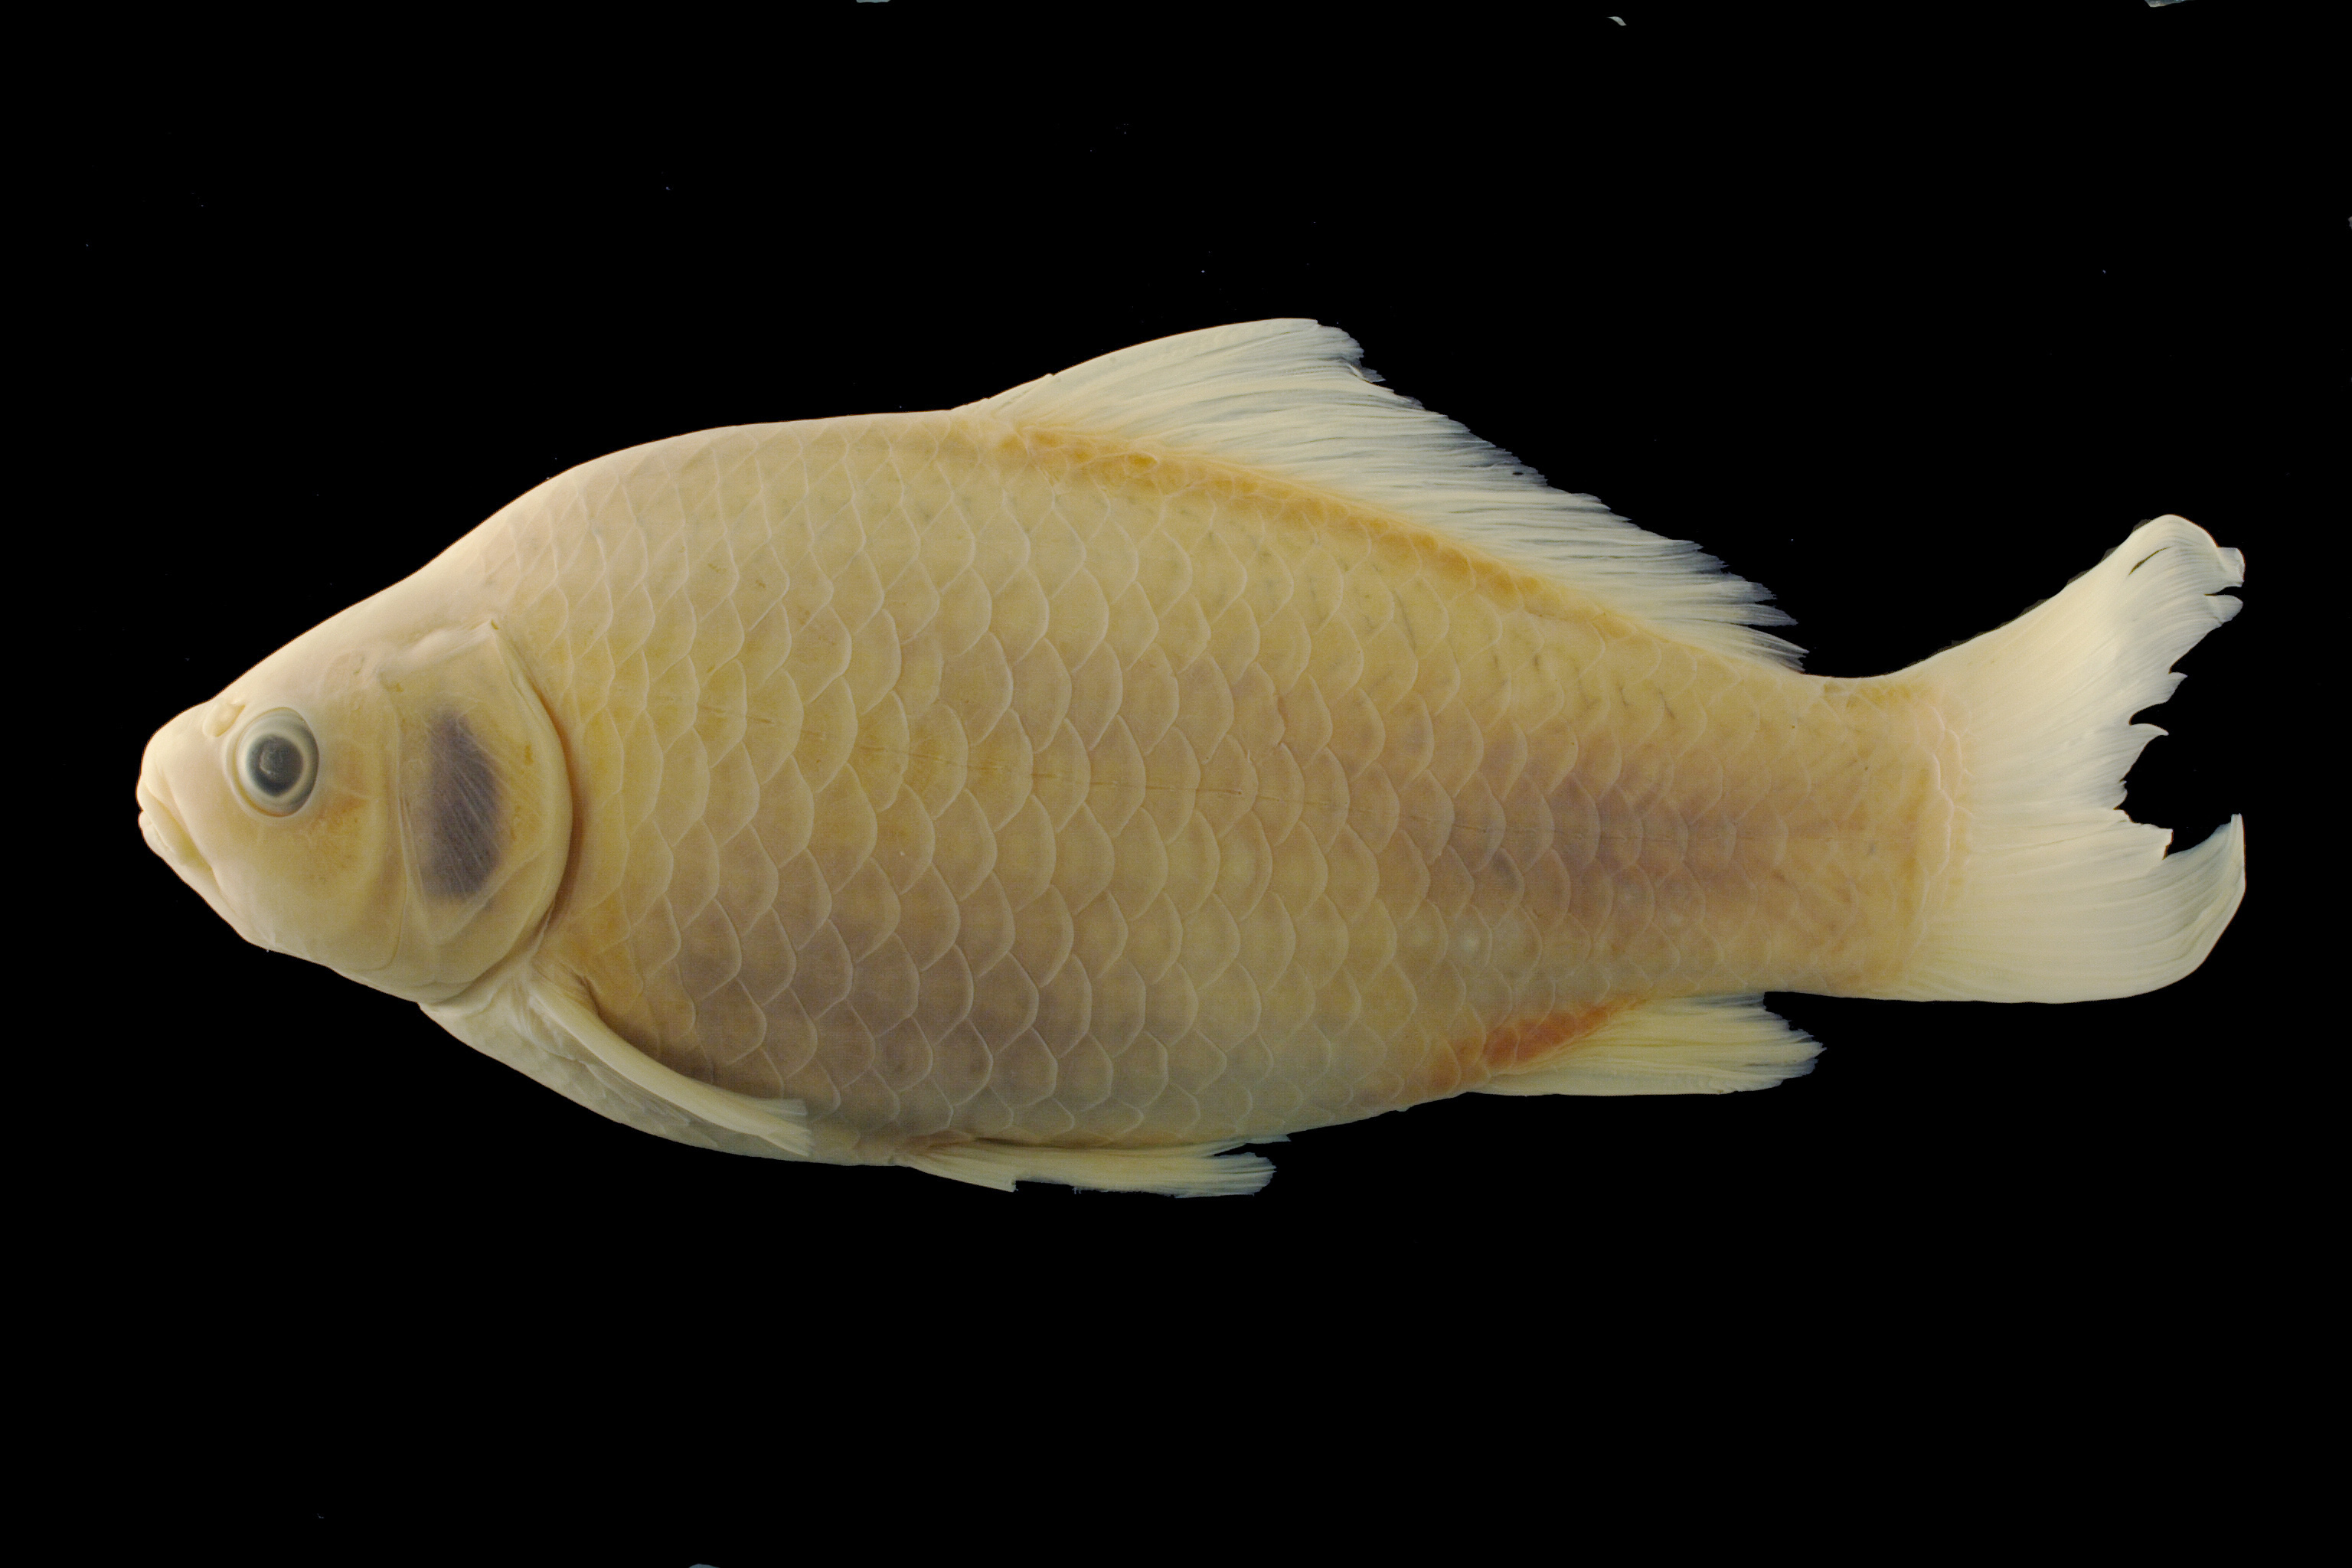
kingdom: Animalia
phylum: Chordata
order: Cypriniformes
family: Cyprinidae
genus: Carassius
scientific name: Carassius auratus
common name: Goldfish
